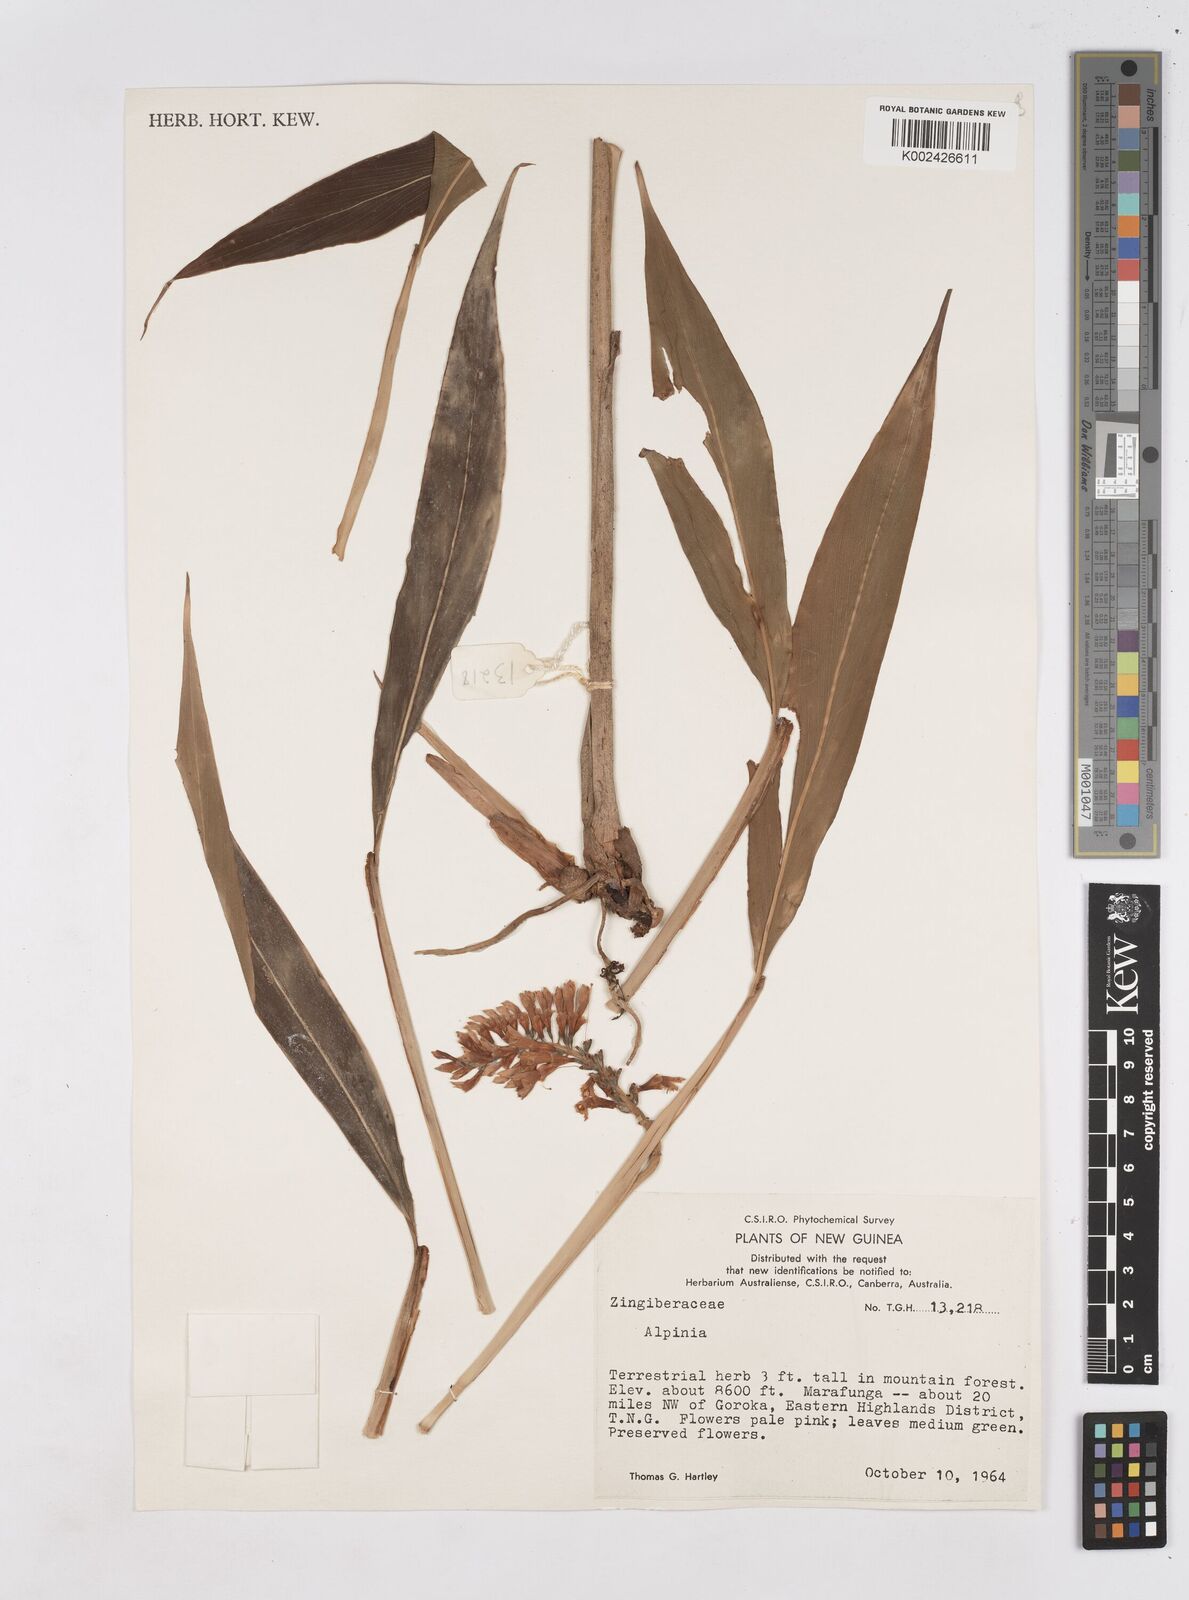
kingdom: Plantae
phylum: Tracheophyta
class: Liliopsida
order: Zingiberales
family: Zingiberaceae
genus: Riedelia
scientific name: Riedelia
